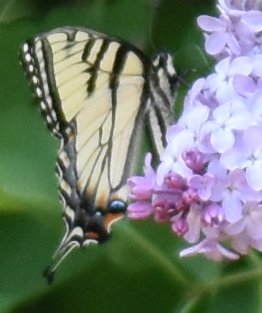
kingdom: Animalia
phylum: Arthropoda
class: Insecta
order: Lepidoptera
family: Papilionidae
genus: Pterourus
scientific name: Pterourus glaucus
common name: Eastern Tiger Swallowtail
